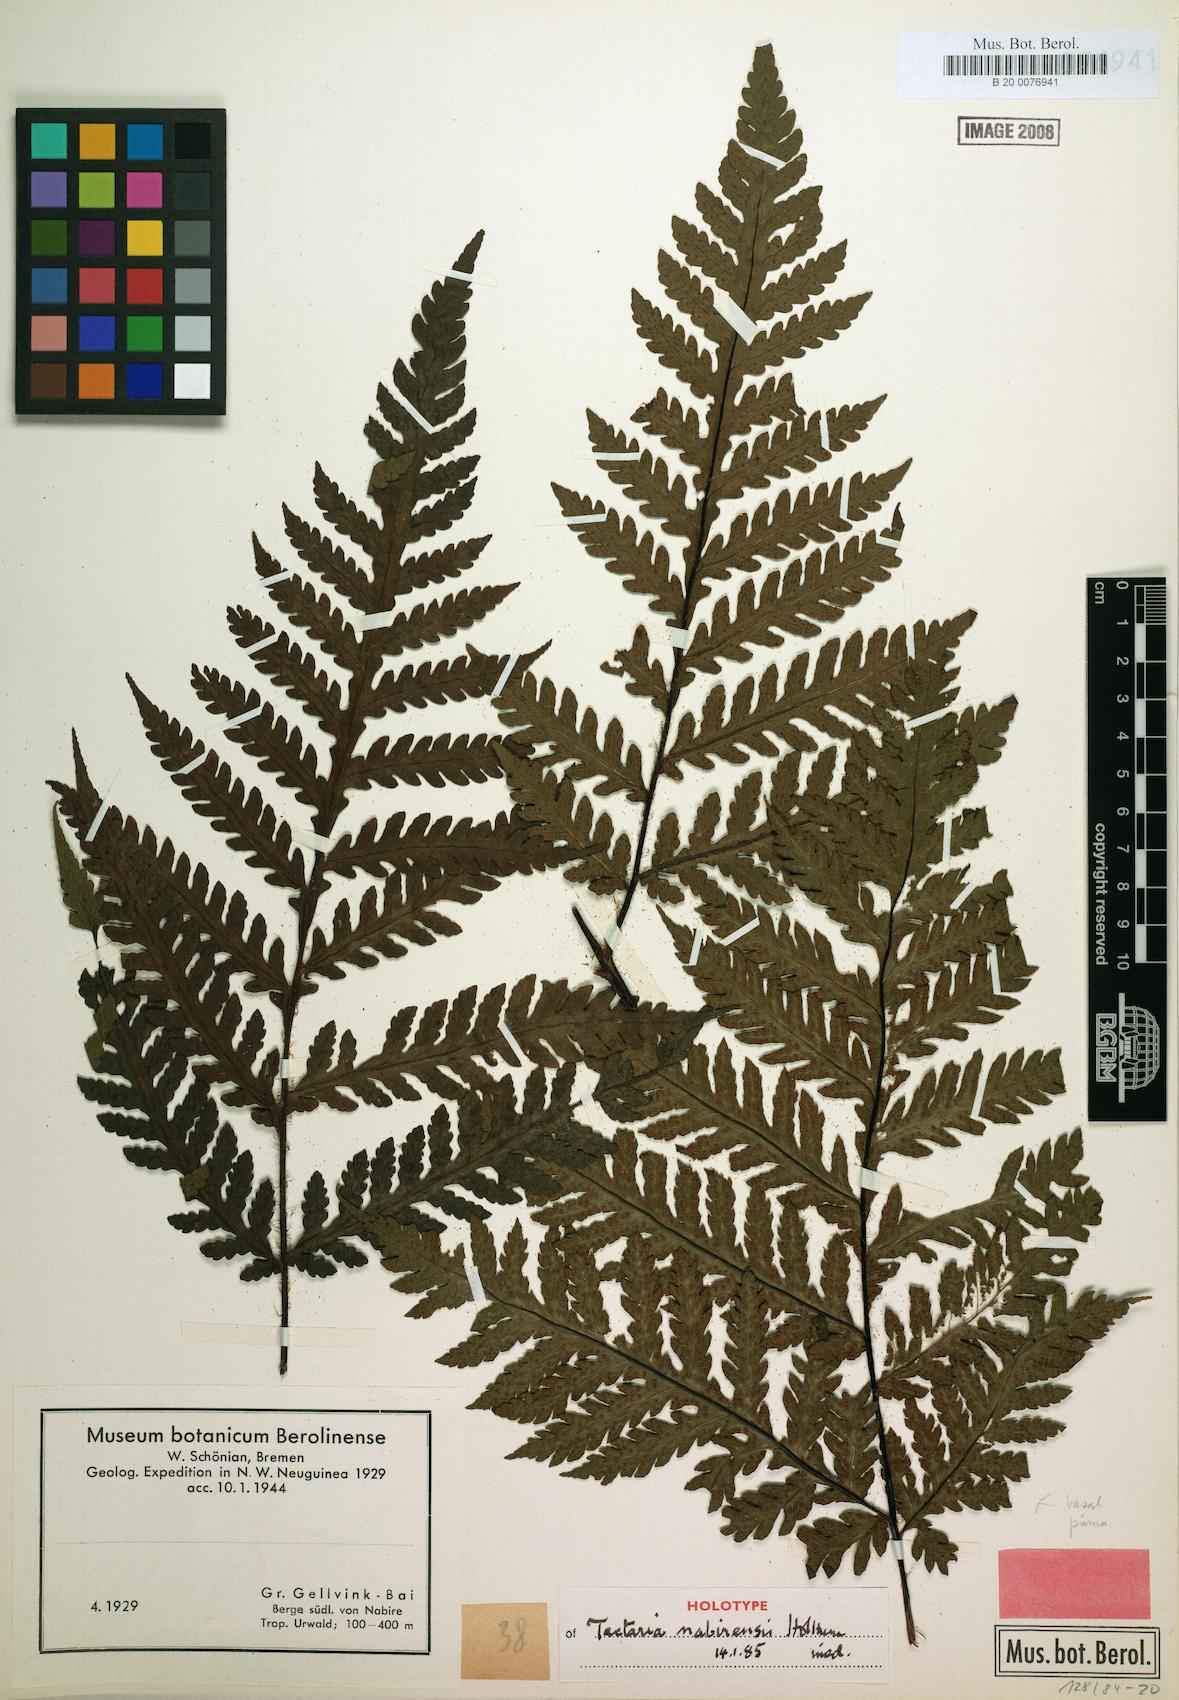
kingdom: Plantae
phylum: Tracheophyta
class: Polypodiopsida
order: Polypodiales
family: Tectariaceae
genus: Tectaria
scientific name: Tectaria nabirensis
